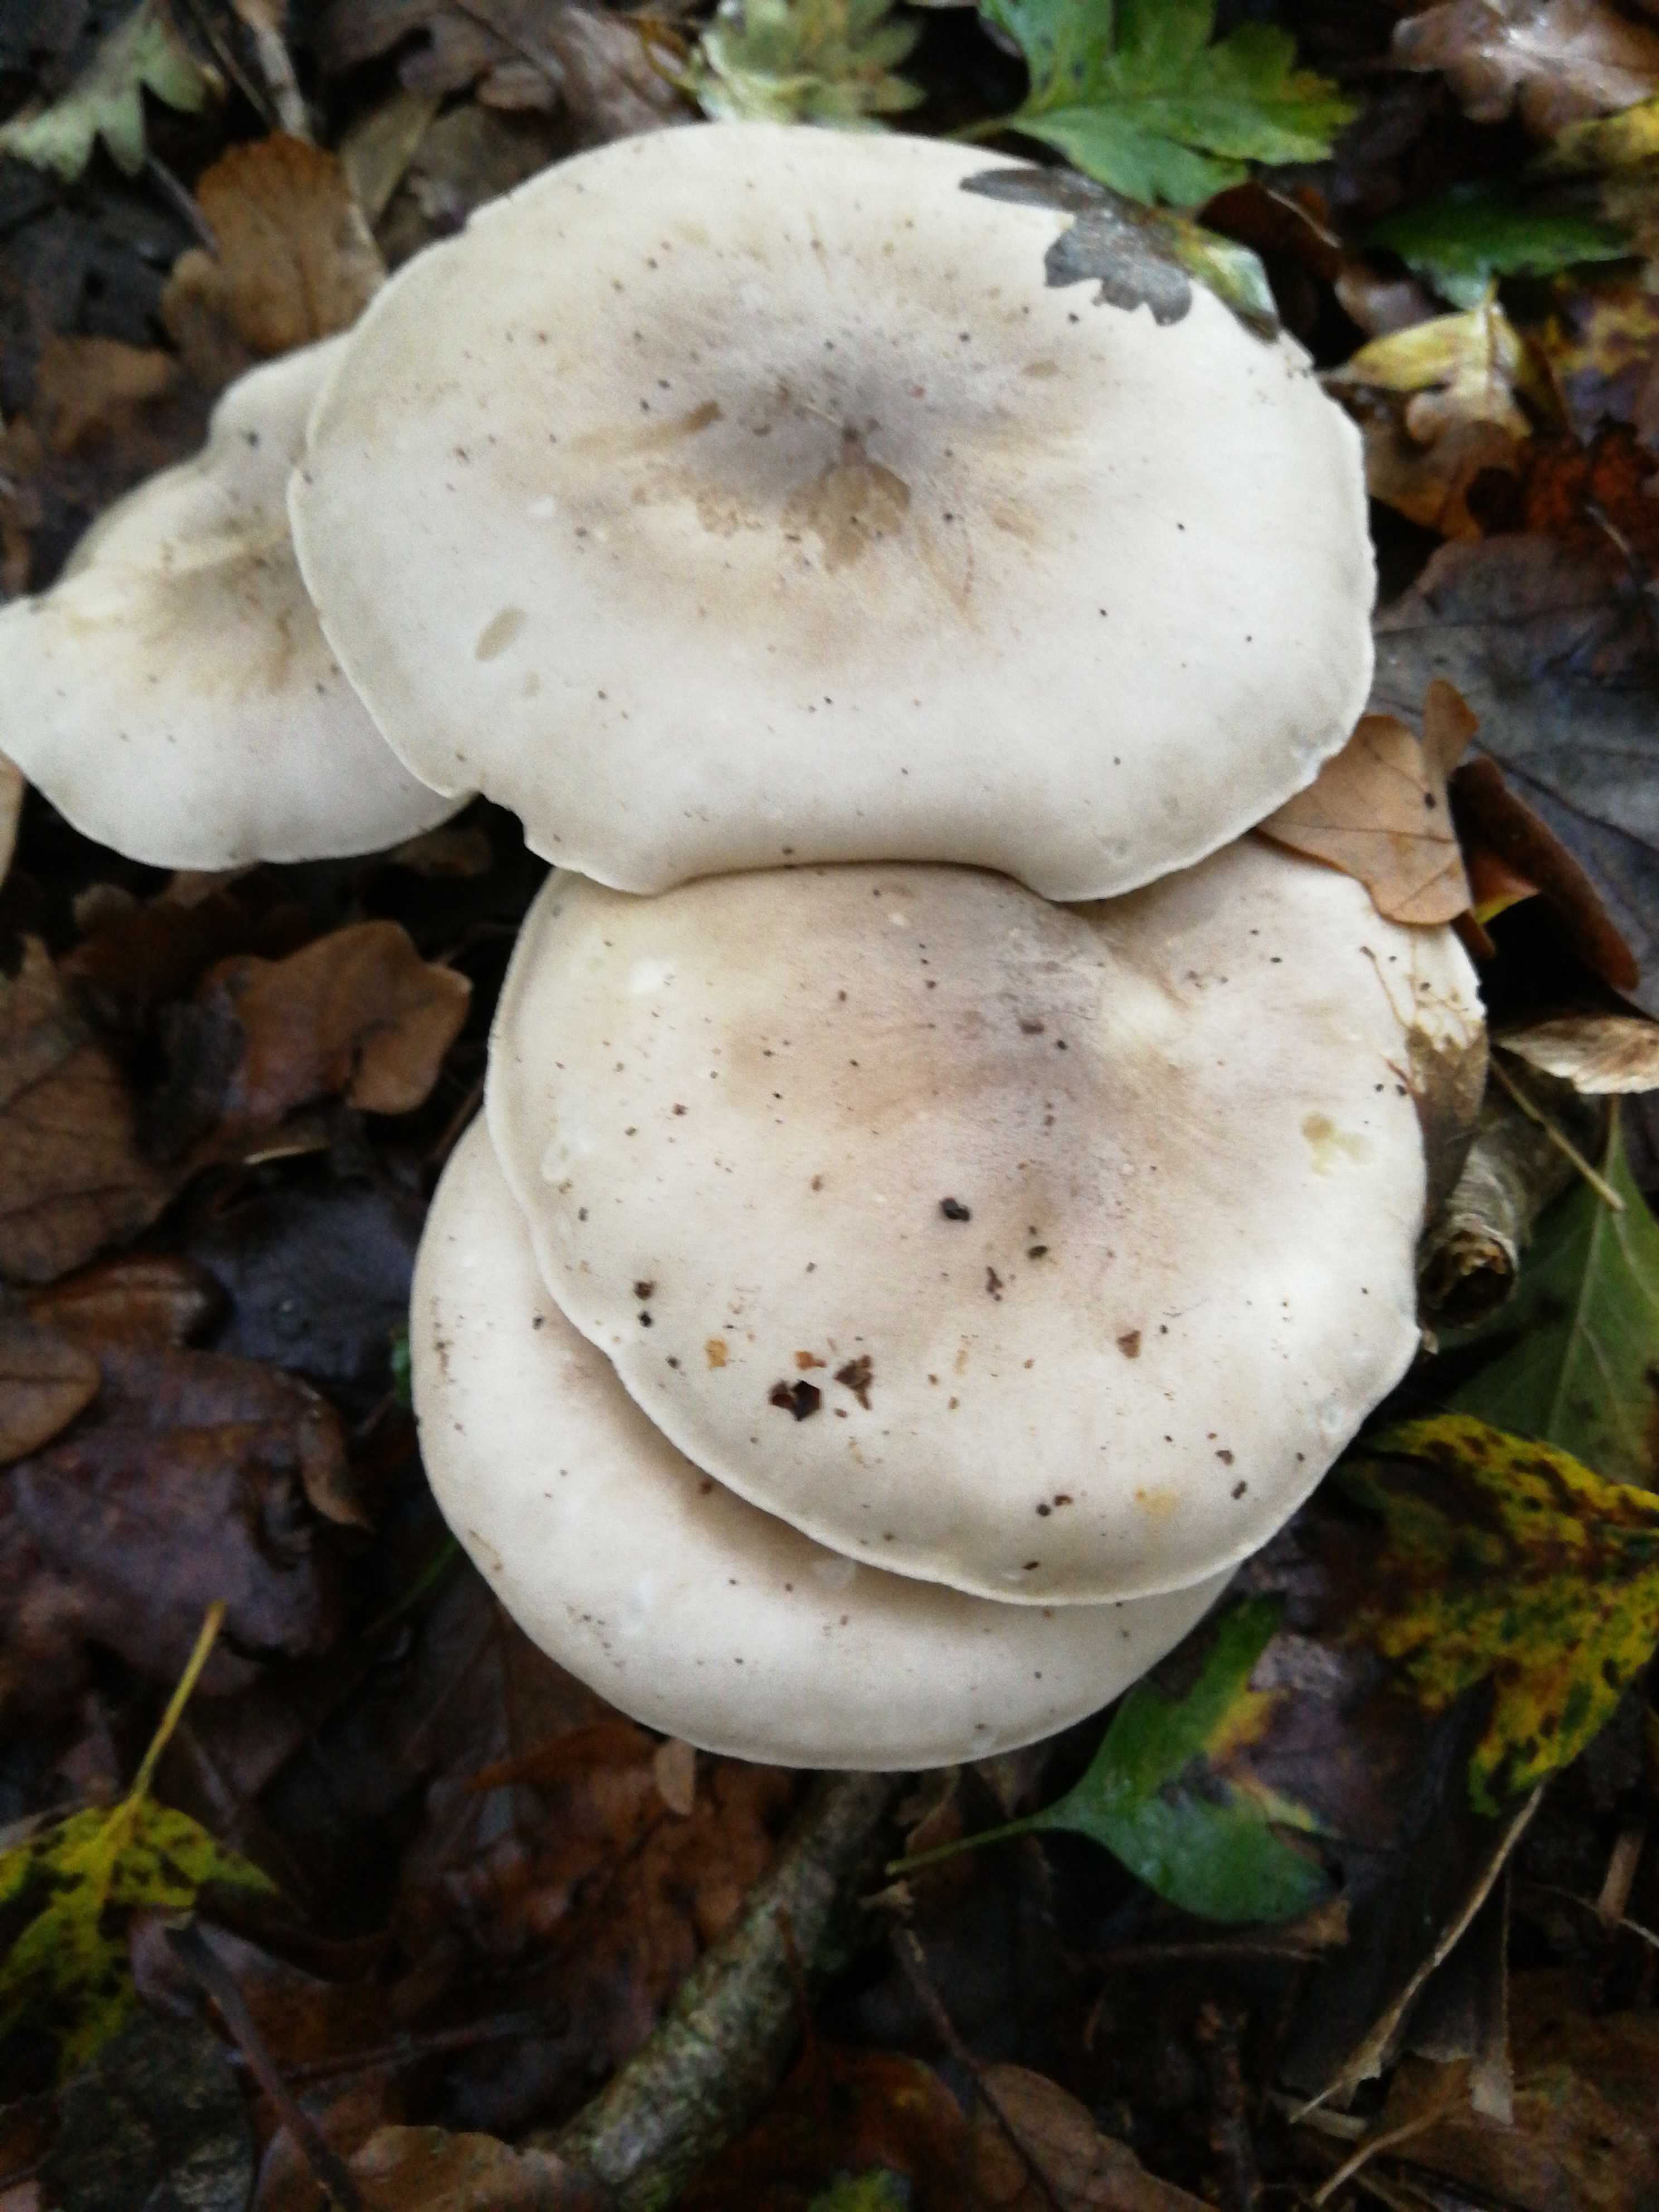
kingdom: Fungi
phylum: Basidiomycota
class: Agaricomycetes
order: Agaricales
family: Tricholomataceae
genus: Clitocybe
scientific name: Clitocybe nebularis
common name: tåge-tragthat
